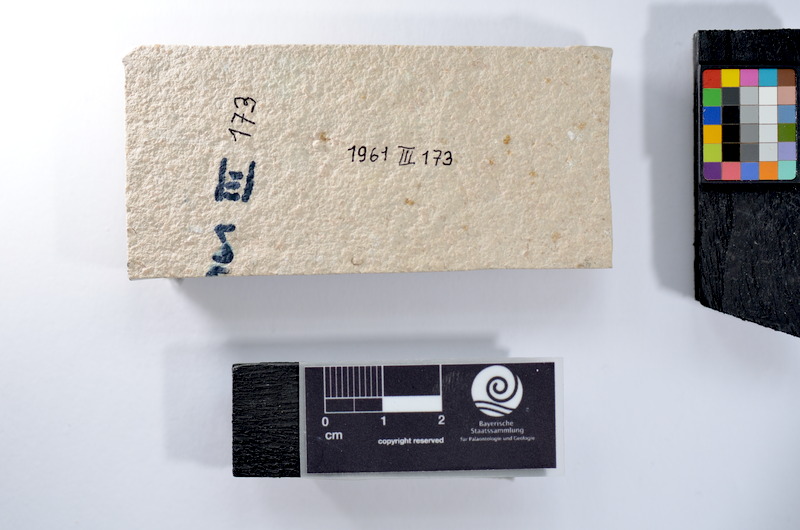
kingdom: Animalia
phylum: Chordata
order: Salmoniformes
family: Orthogonikleithridae
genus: Leptolepides
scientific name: Leptolepides
